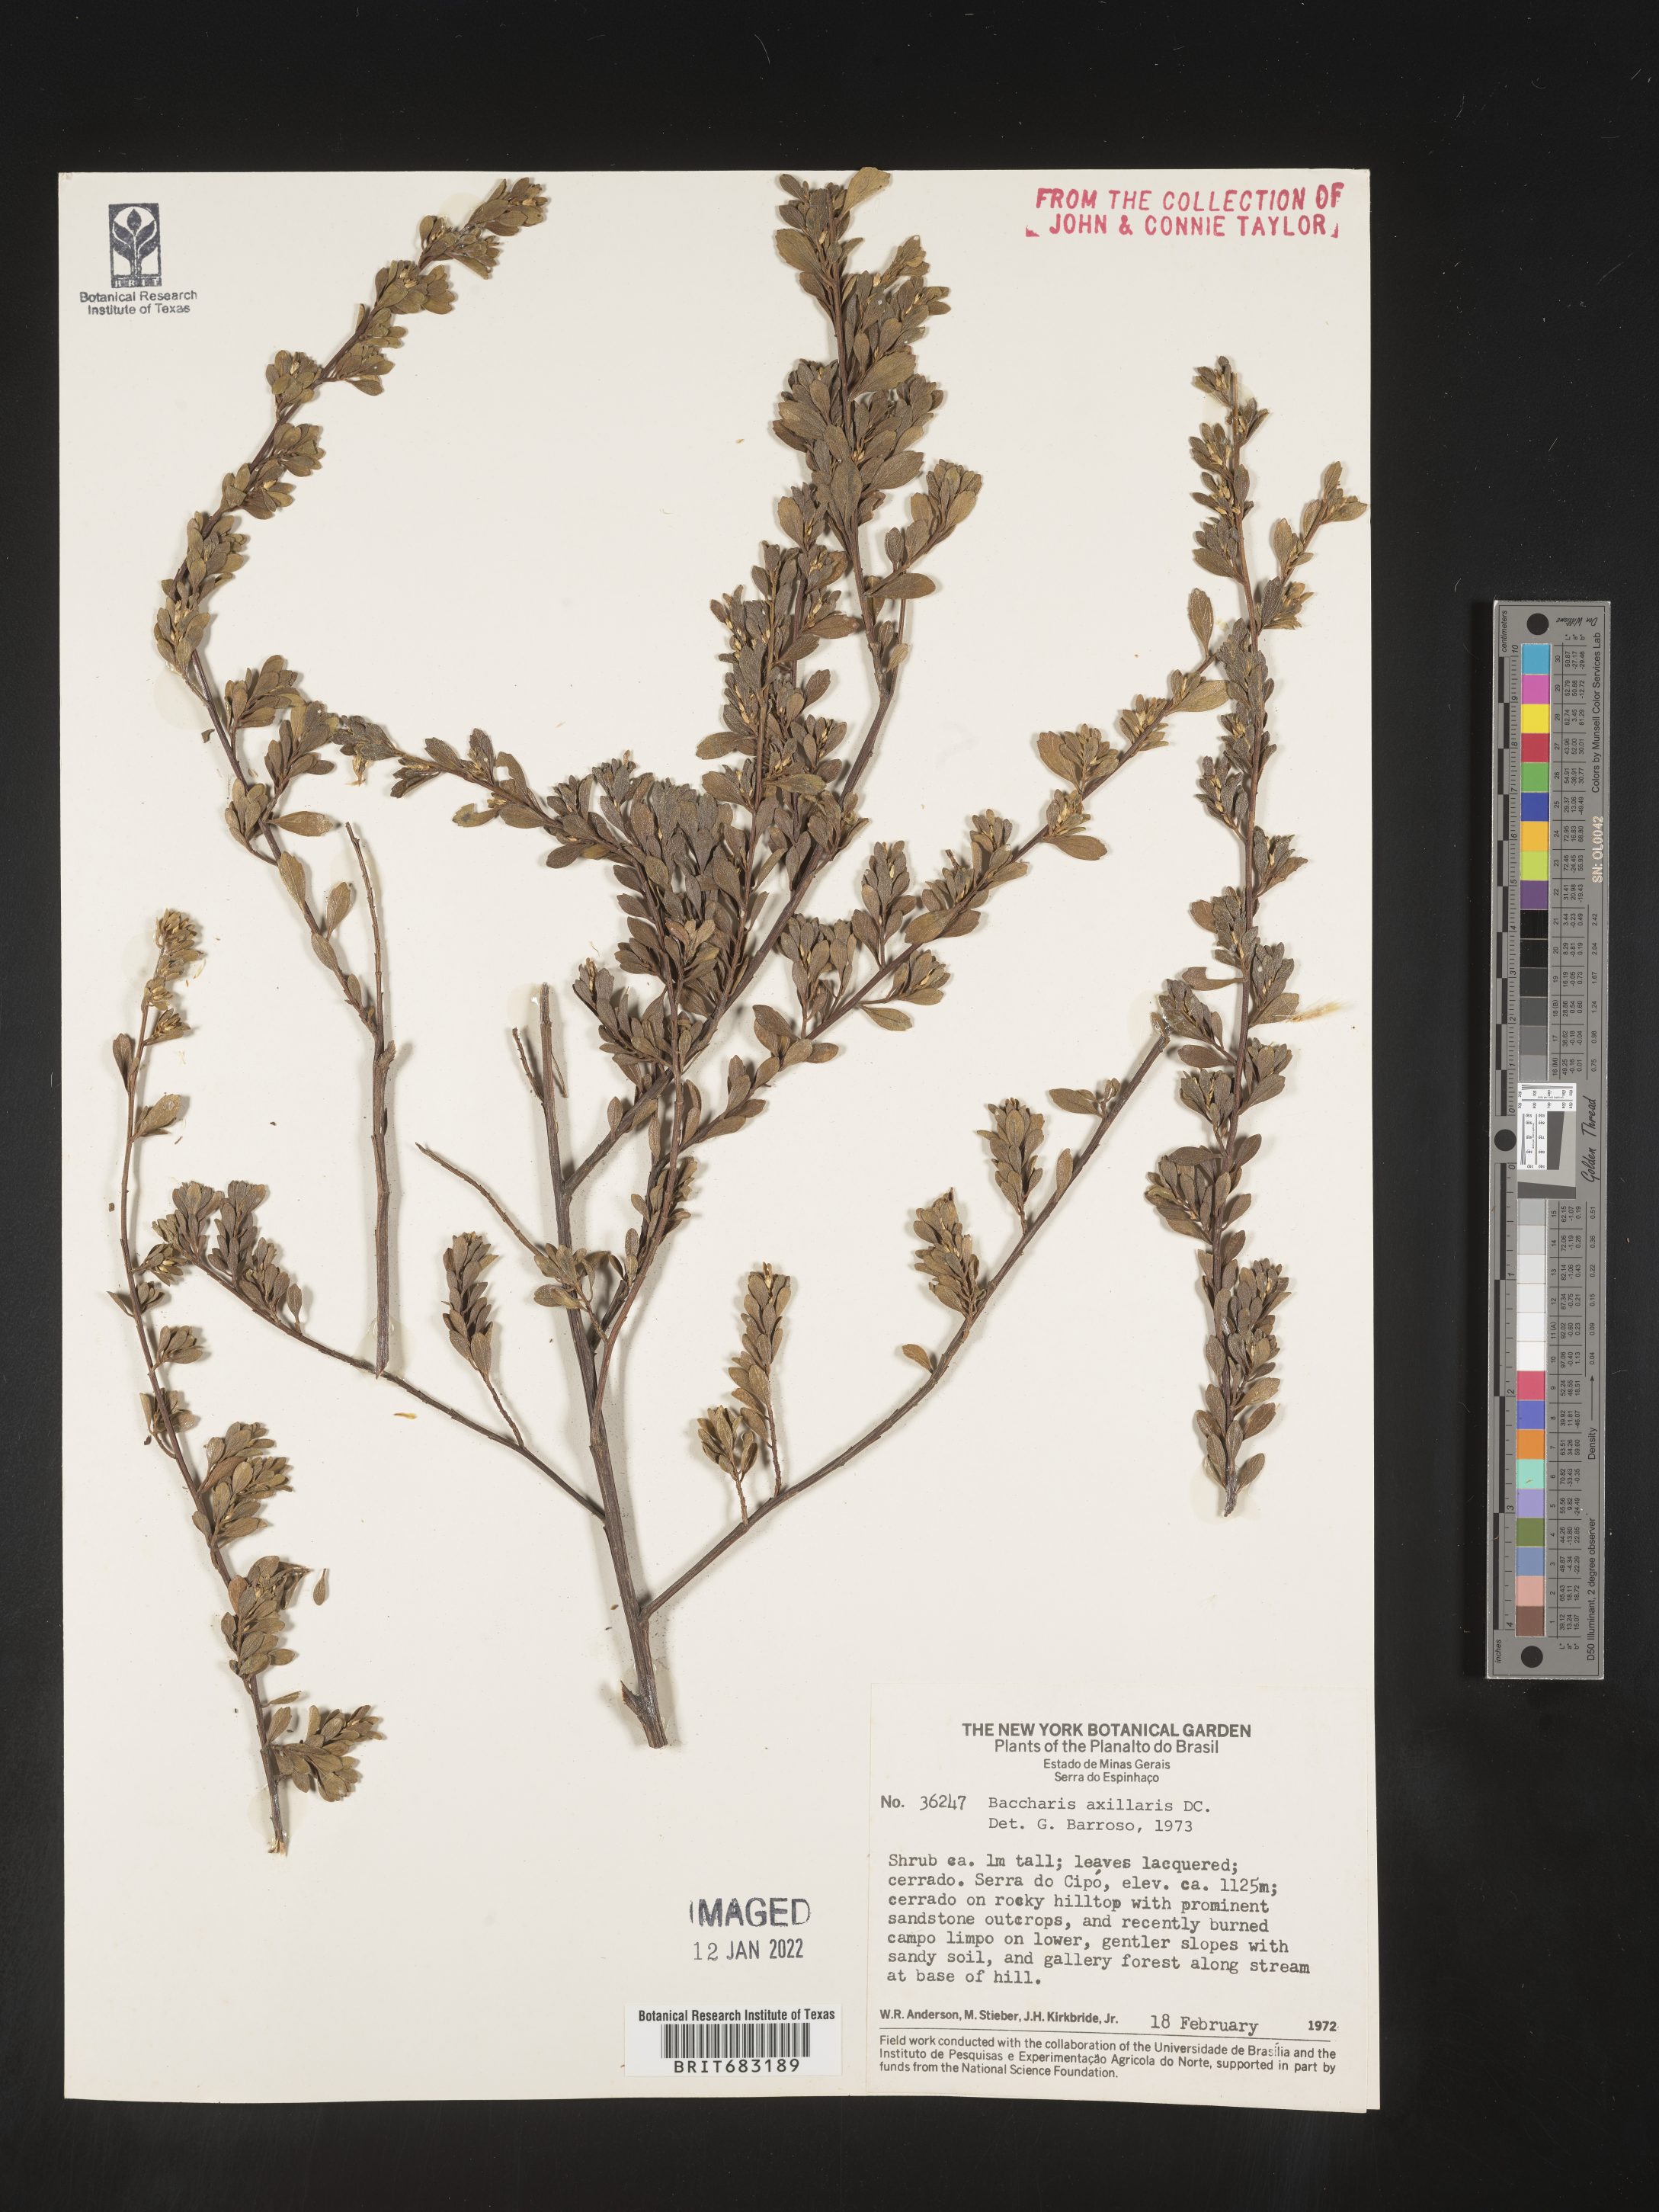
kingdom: Plantae
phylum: Tracheophyta
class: Magnoliopsida
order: Asterales
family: Asteraceae
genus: Baccharis
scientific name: Baccharis
